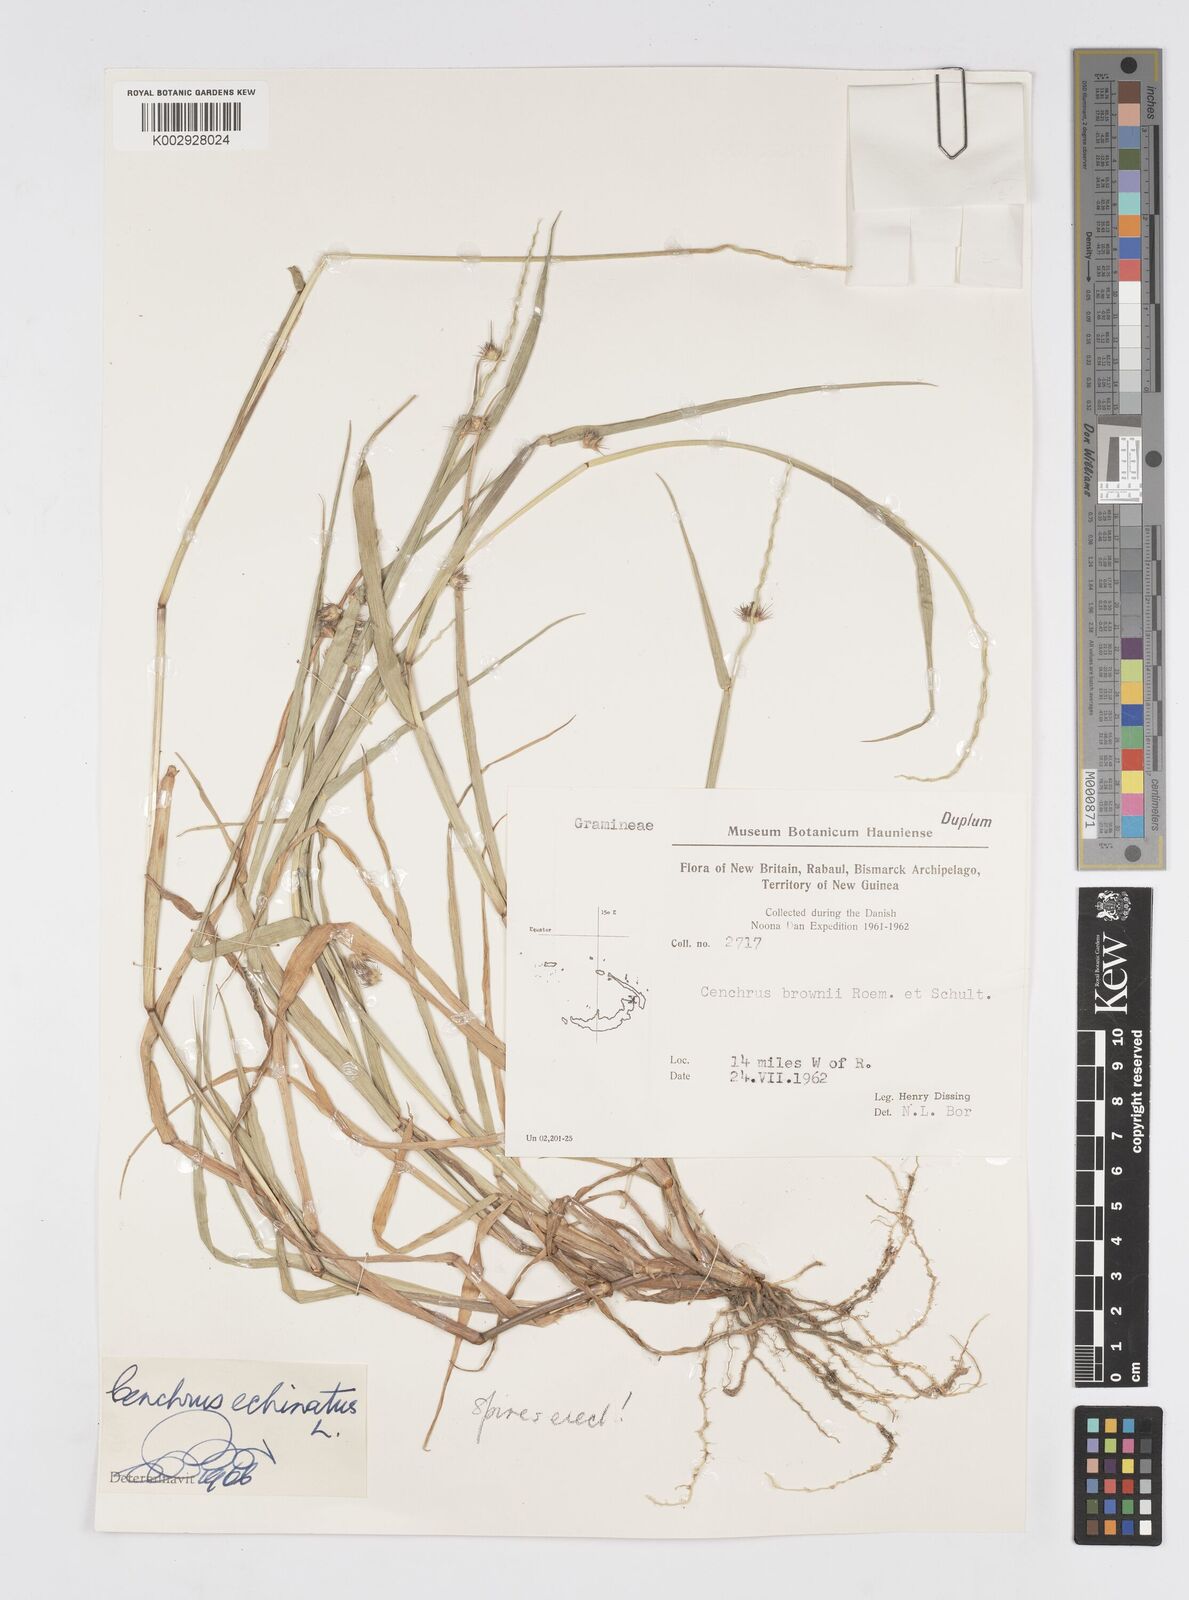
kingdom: Plantae
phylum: Tracheophyta
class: Liliopsida
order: Poales
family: Poaceae
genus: Cenchrus
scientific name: Cenchrus brownii
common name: Slim-bristle sandbur
